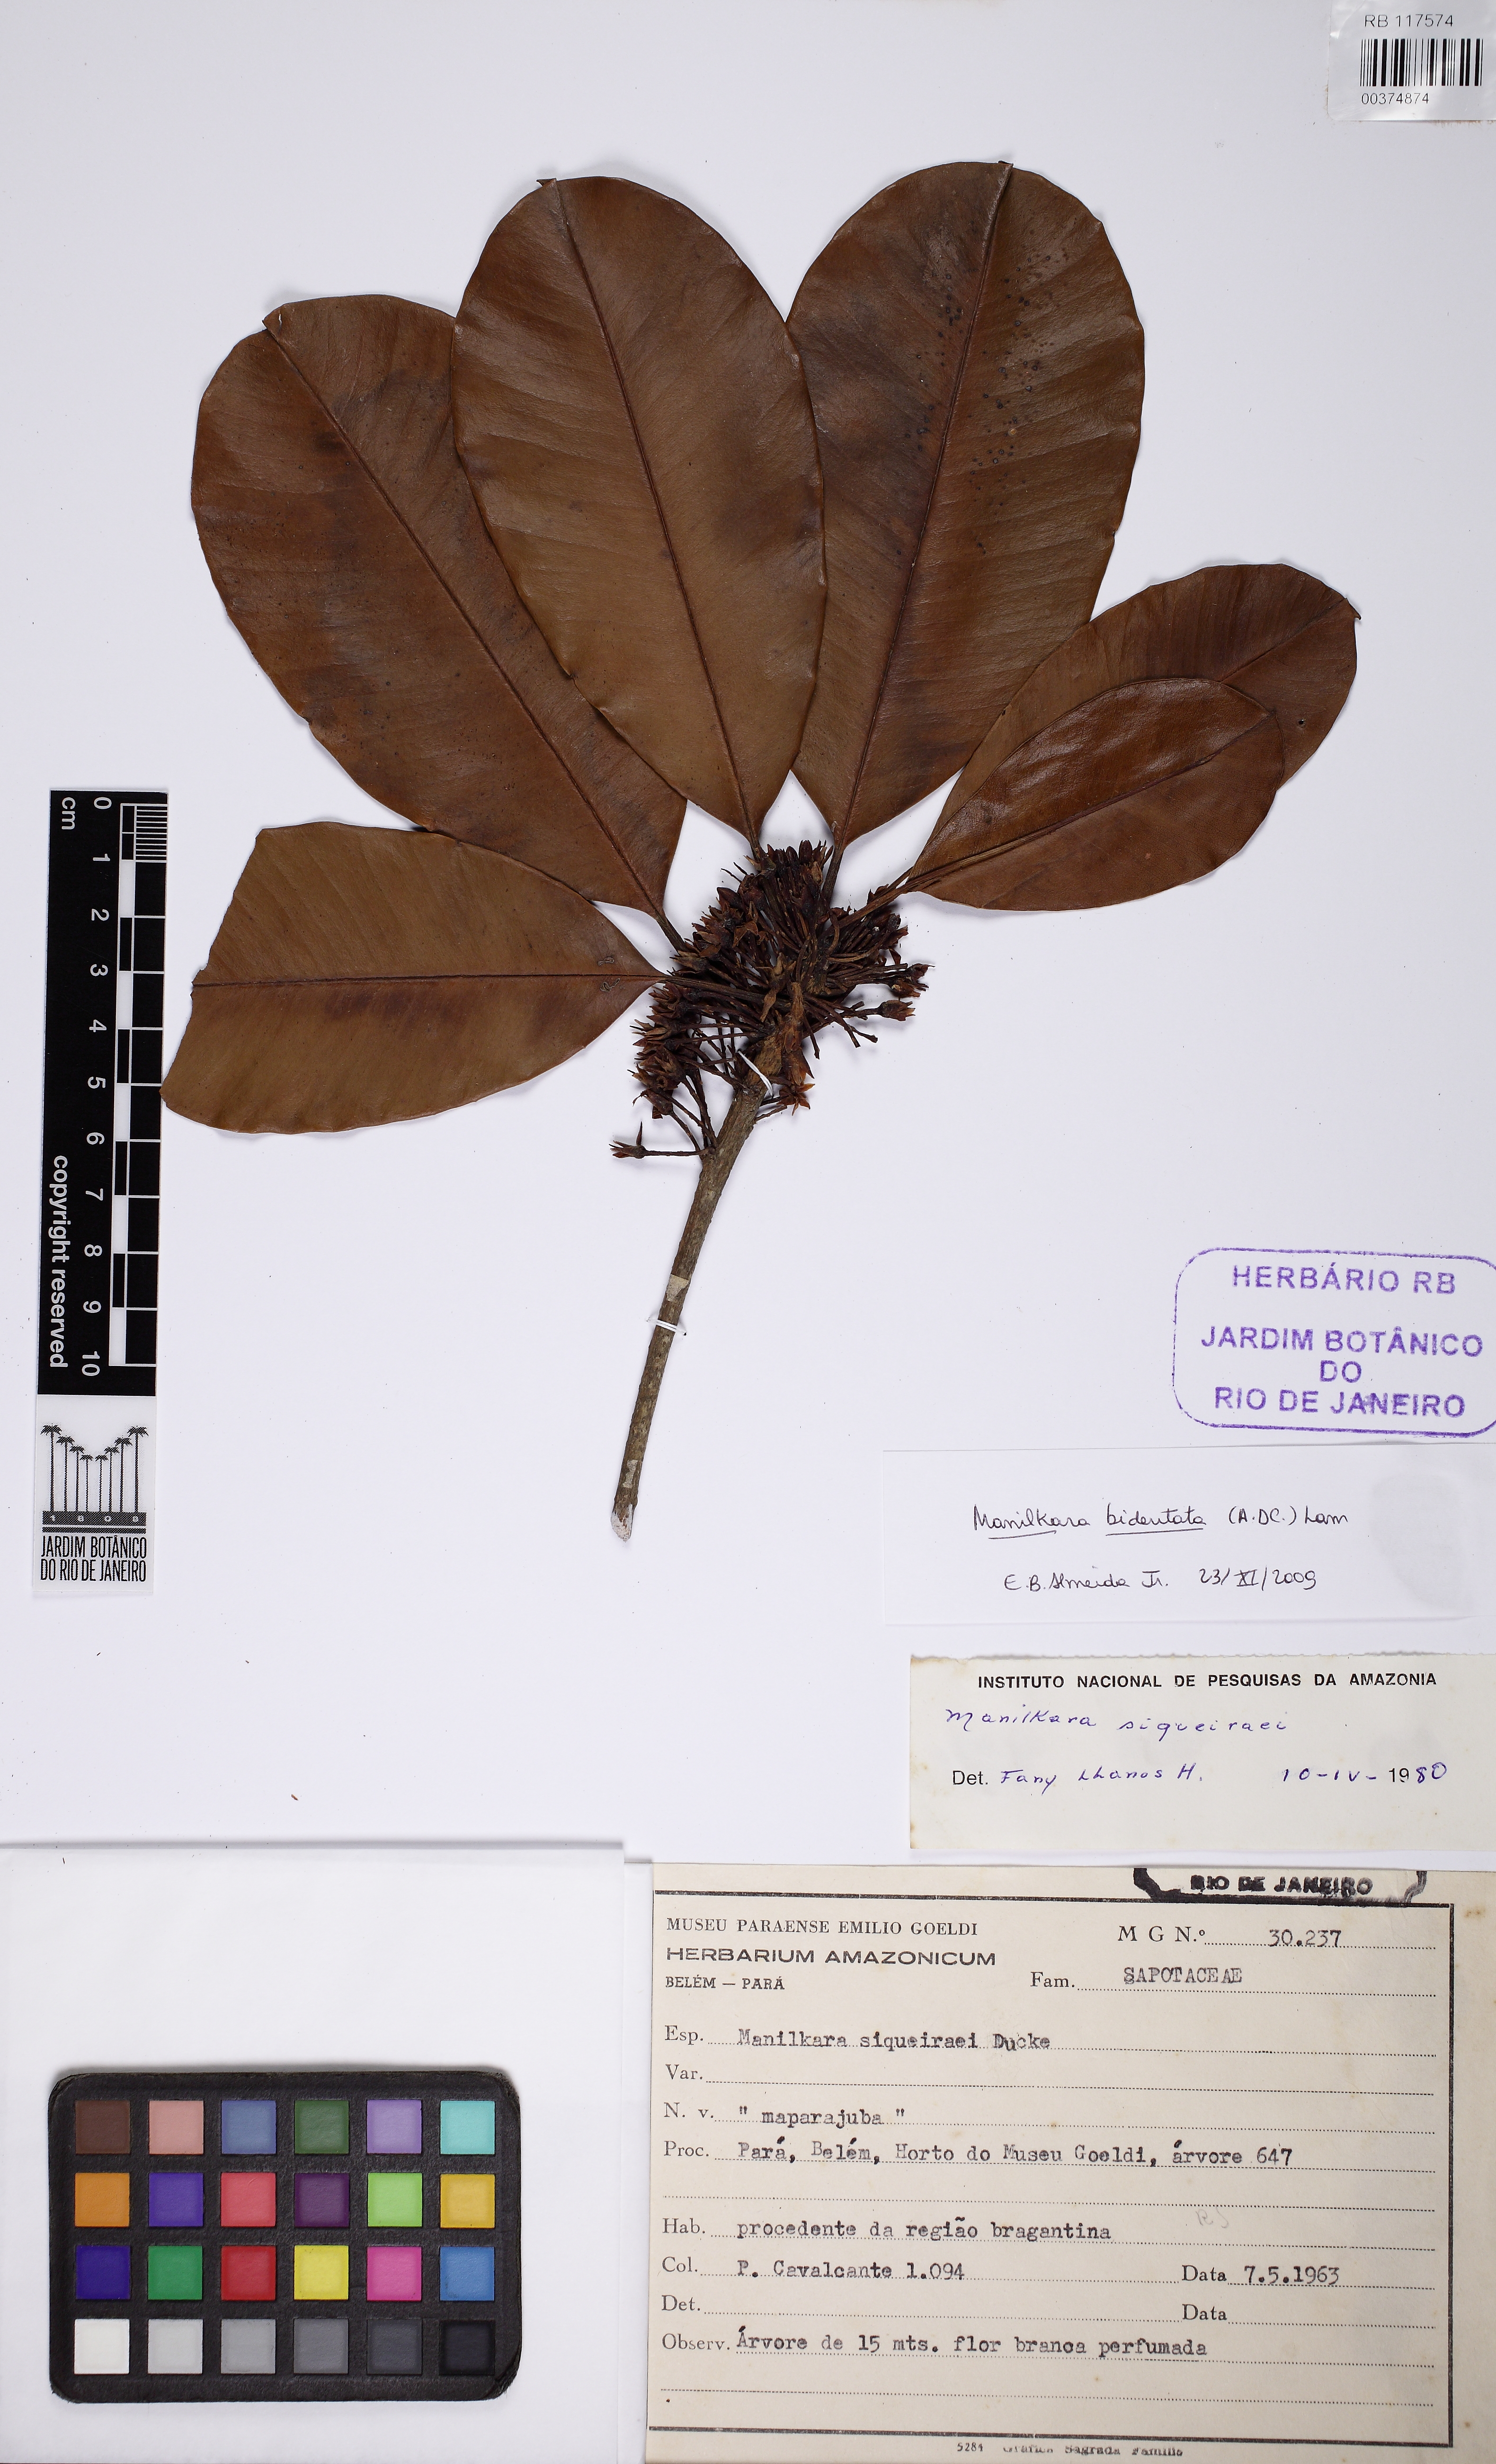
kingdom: Plantae
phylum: Tracheophyta
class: Magnoliopsida
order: Ericales
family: Sapotaceae
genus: Manilkara
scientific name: Manilkara bidentata
